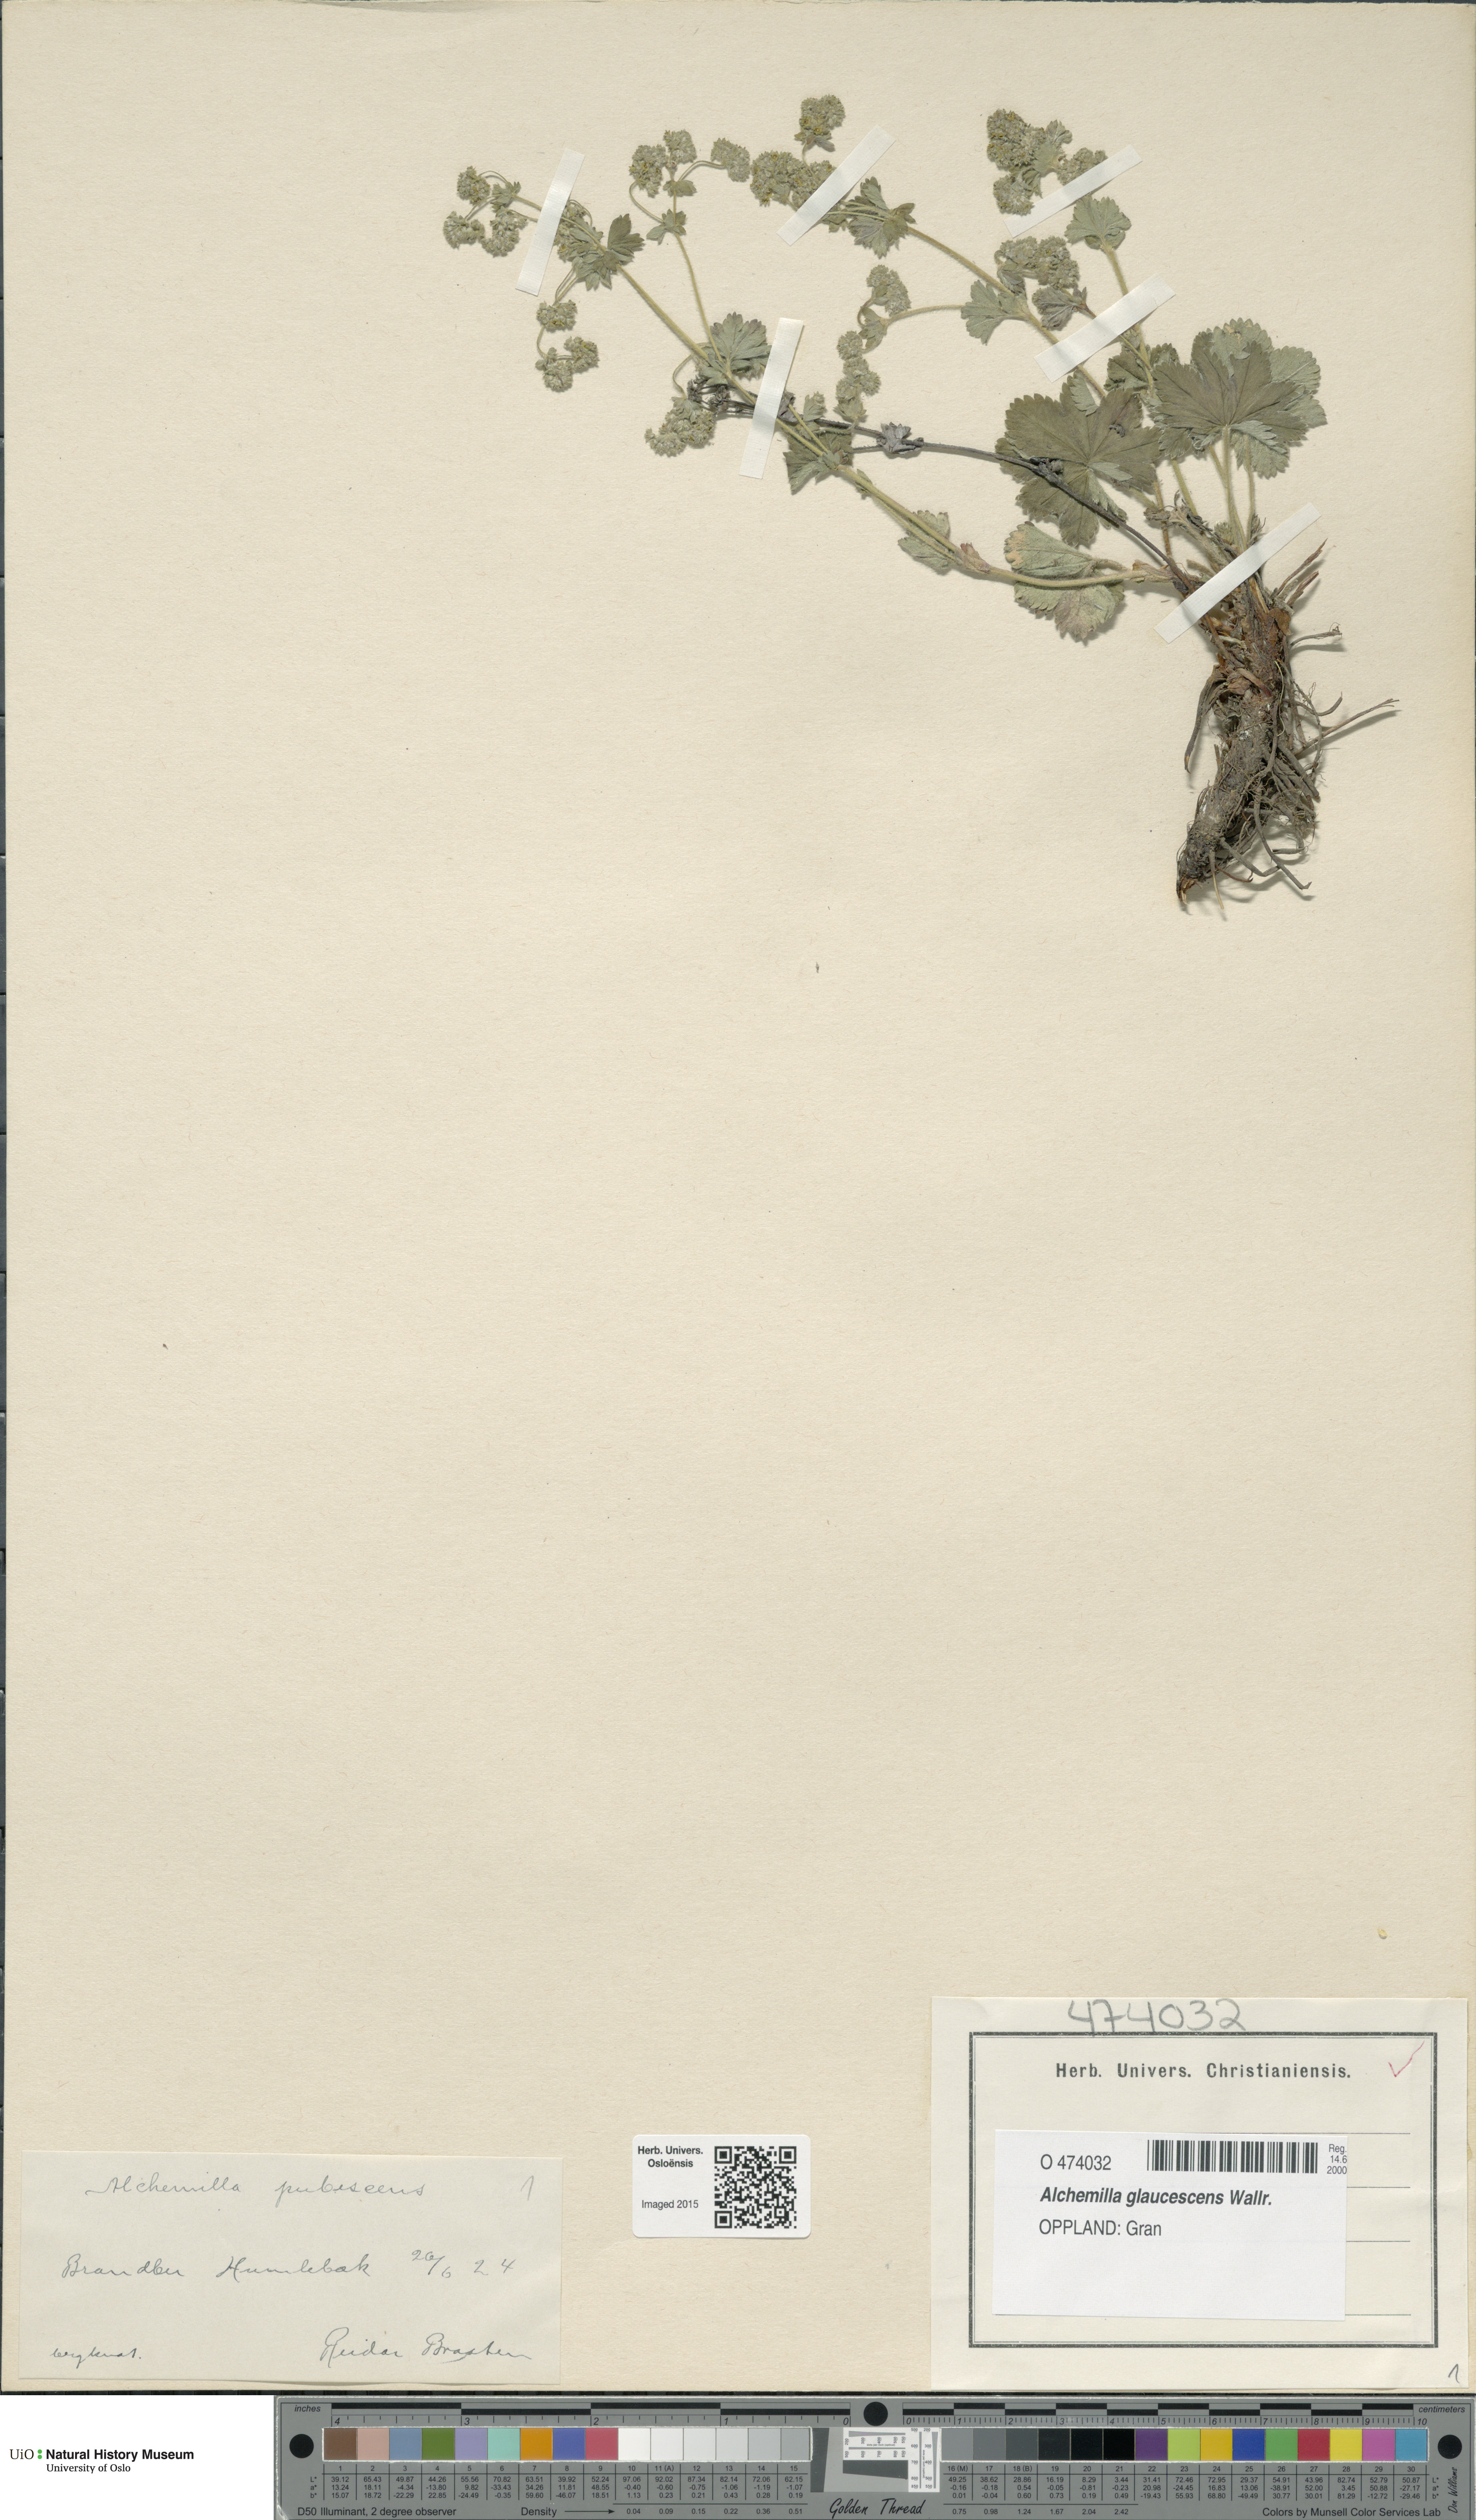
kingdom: Plantae
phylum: Tracheophyta
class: Magnoliopsida
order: Rosales
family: Rosaceae
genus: Alchemilla
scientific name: Alchemilla glaucescens
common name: Silky lady's mantle
